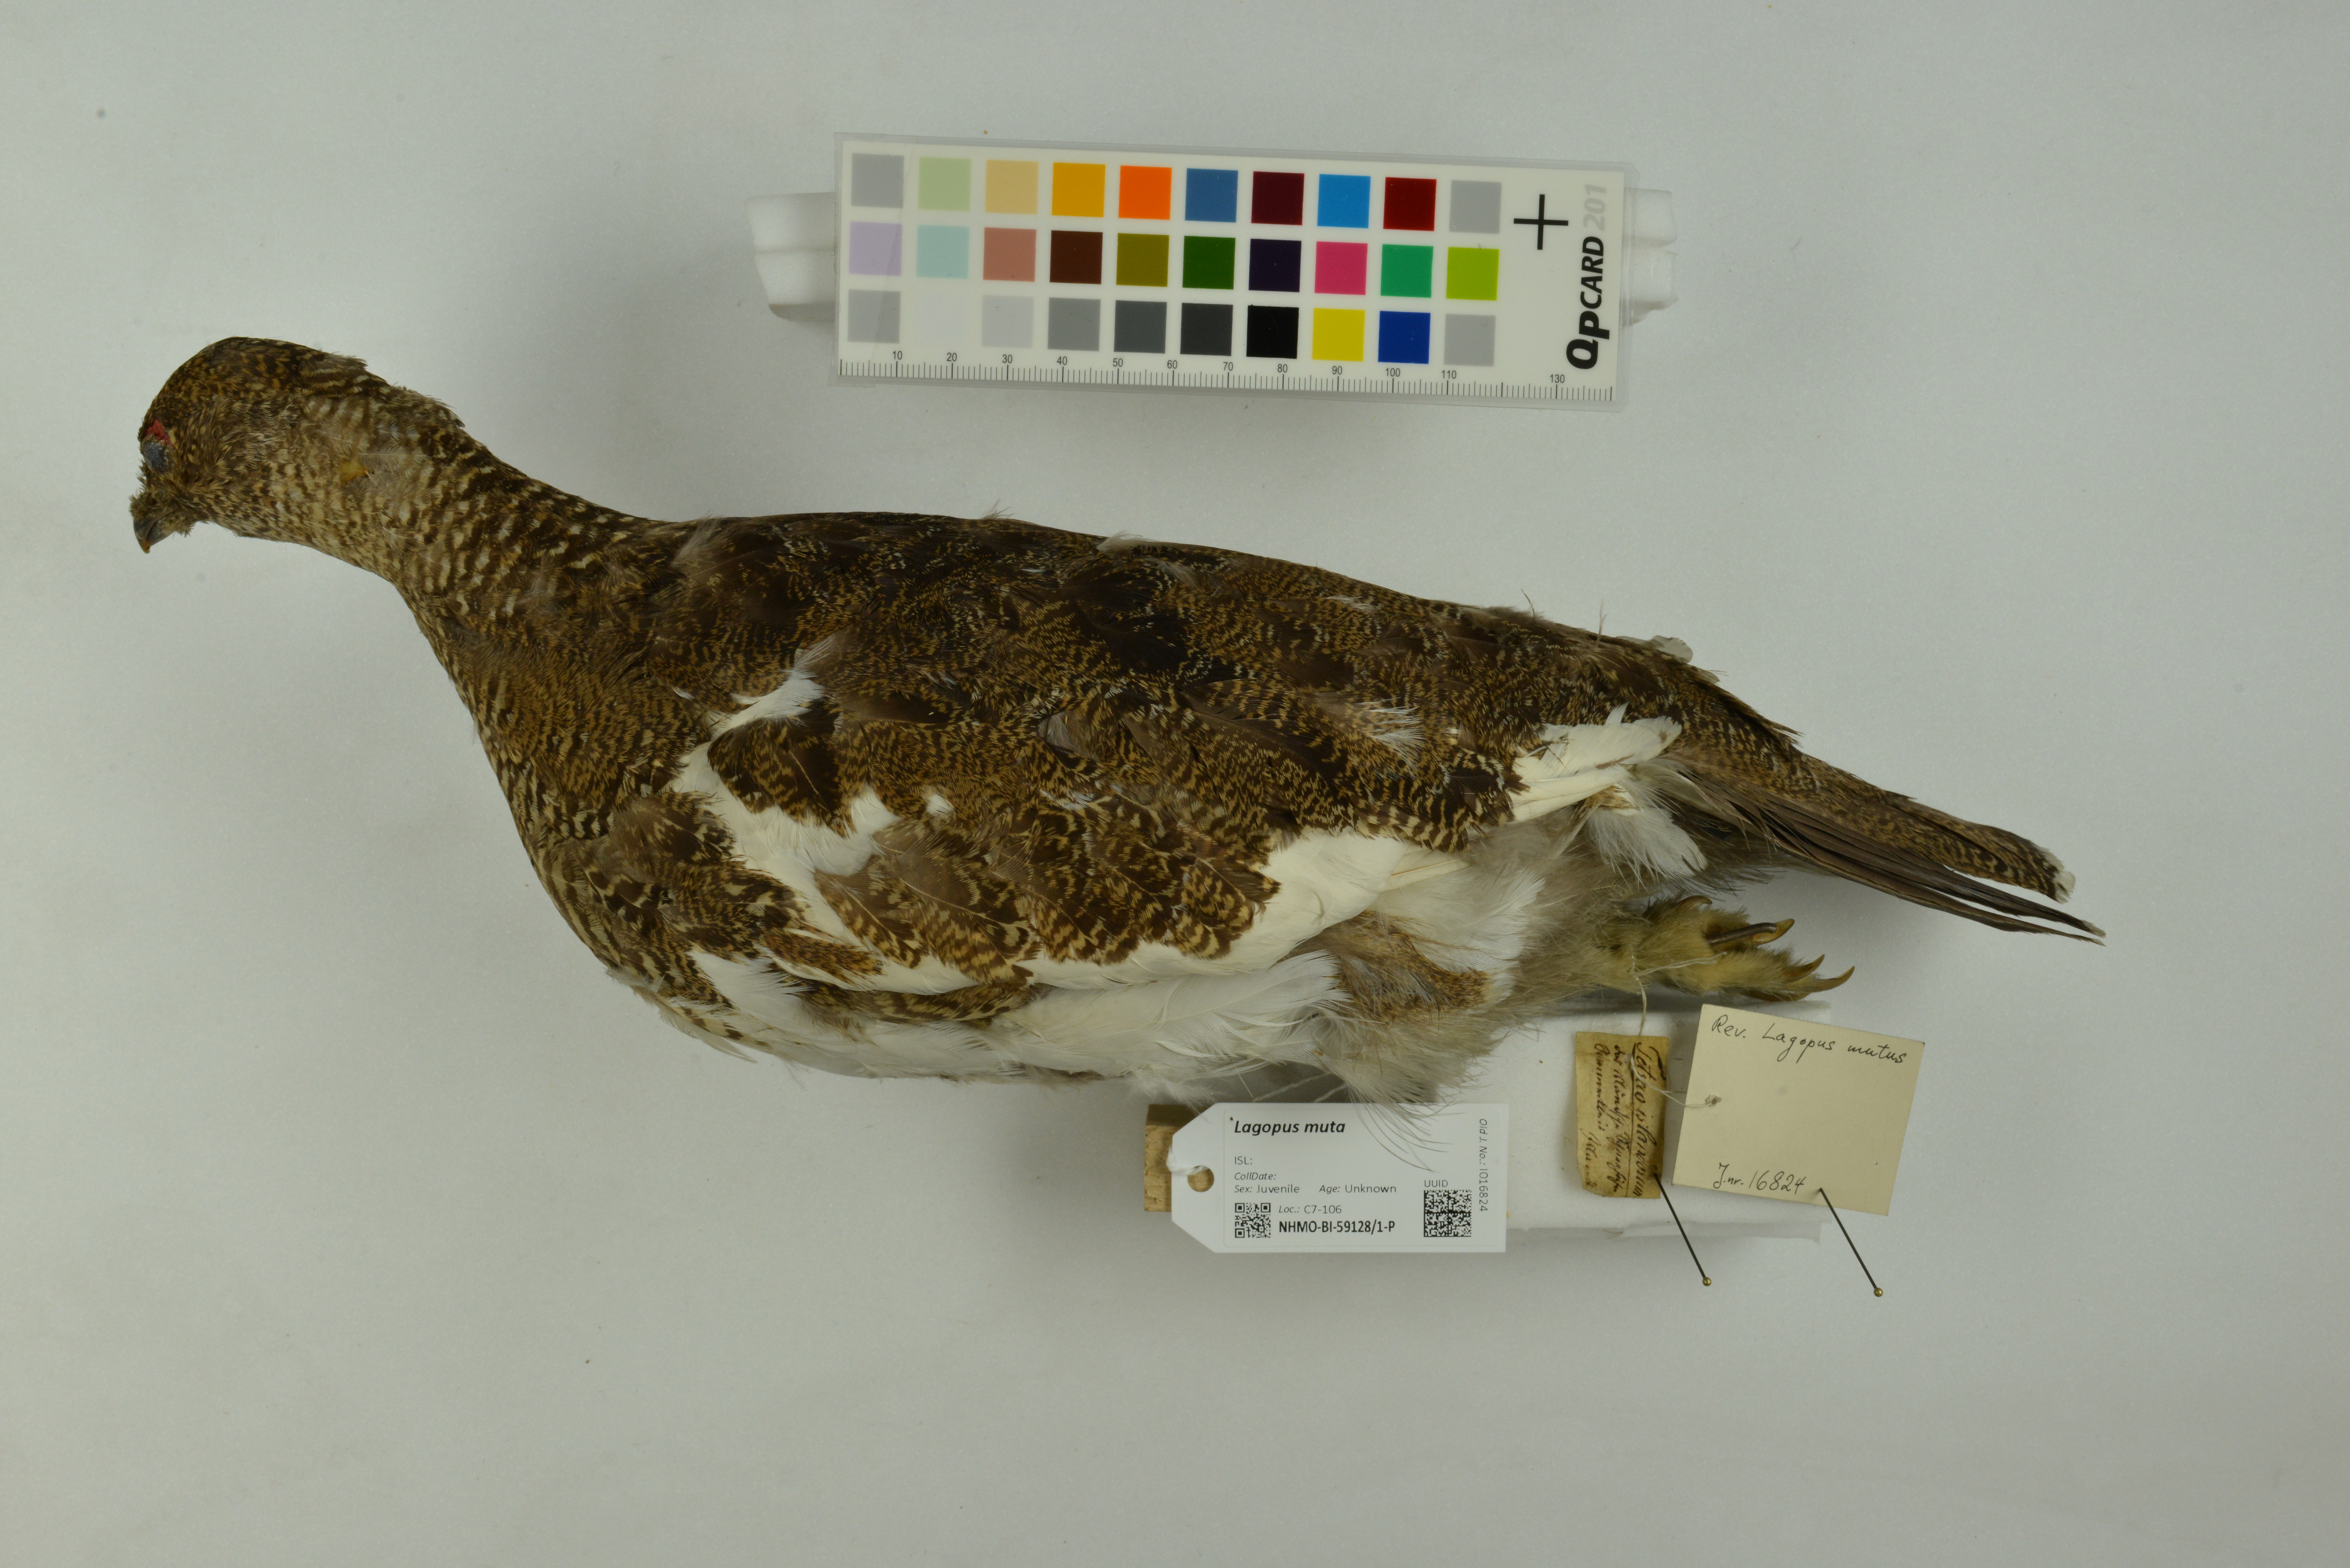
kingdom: Animalia
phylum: Chordata
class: Aves
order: Galliformes
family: Phasianidae
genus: Lagopus
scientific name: Lagopus muta
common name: Rock ptarmigan
